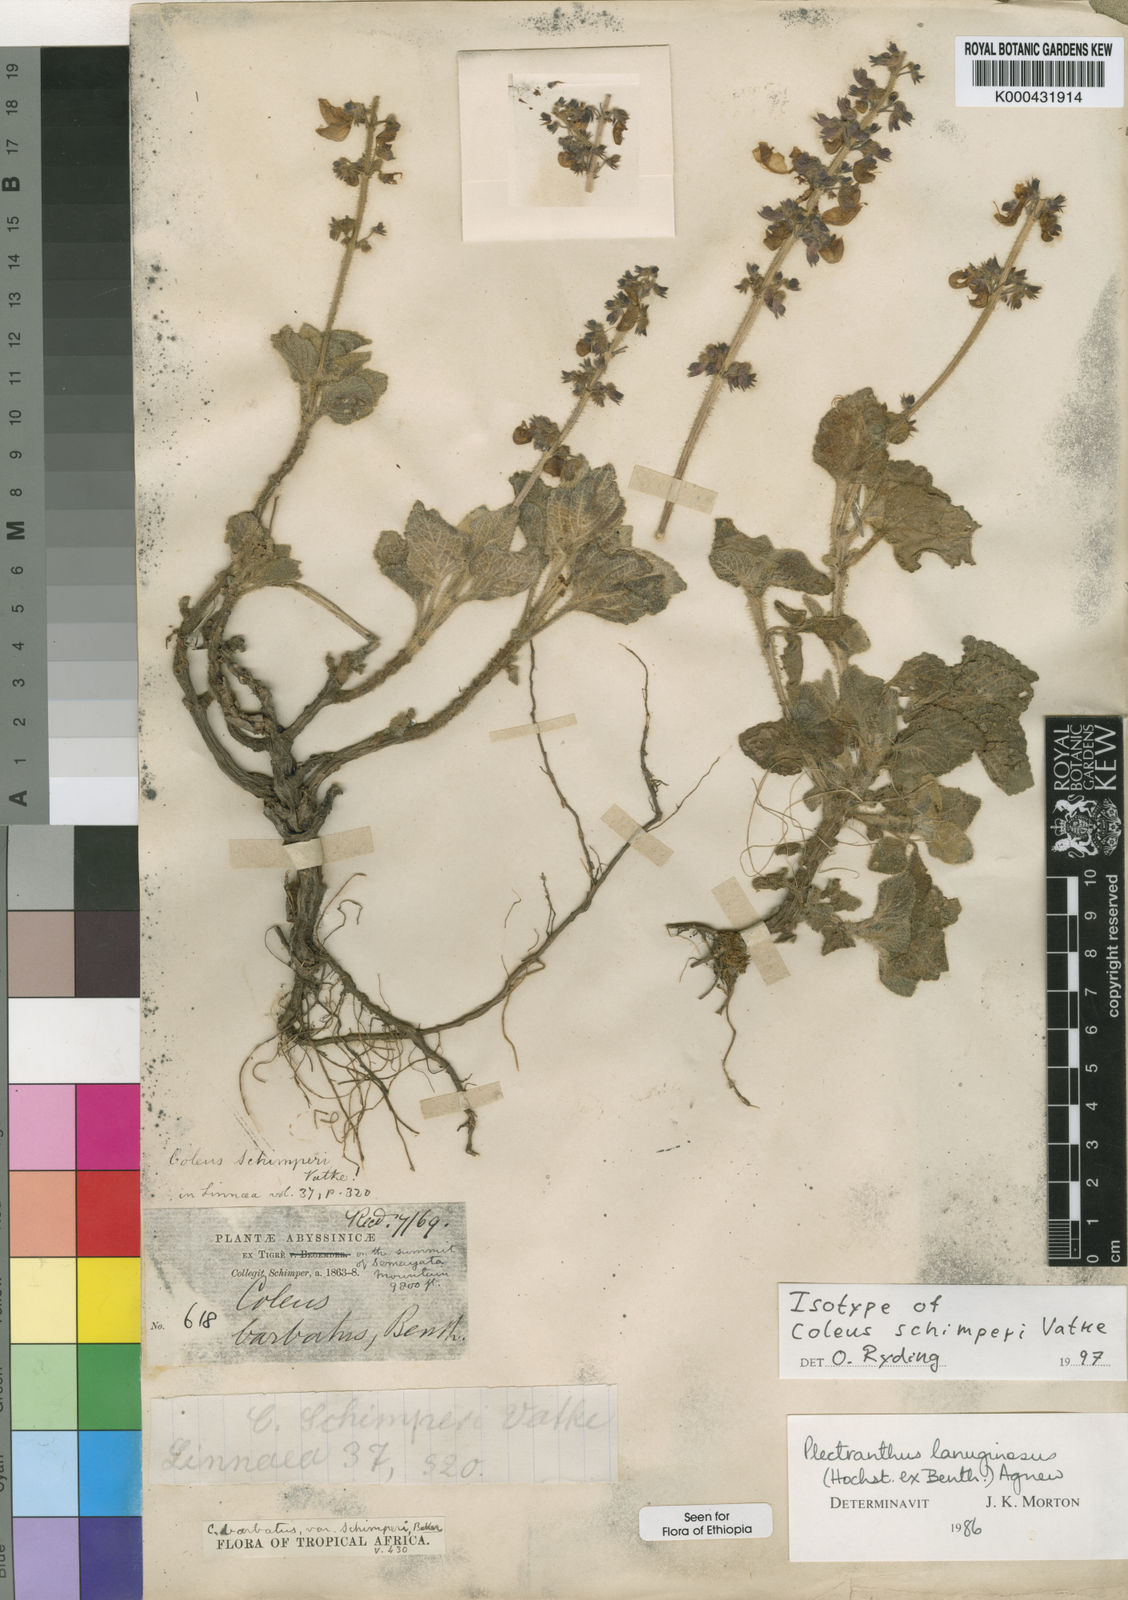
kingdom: Plantae
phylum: Tracheophyta
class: Magnoliopsida
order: Lamiales
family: Lamiaceae
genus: Coleus
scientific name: Coleus lanuginosus
